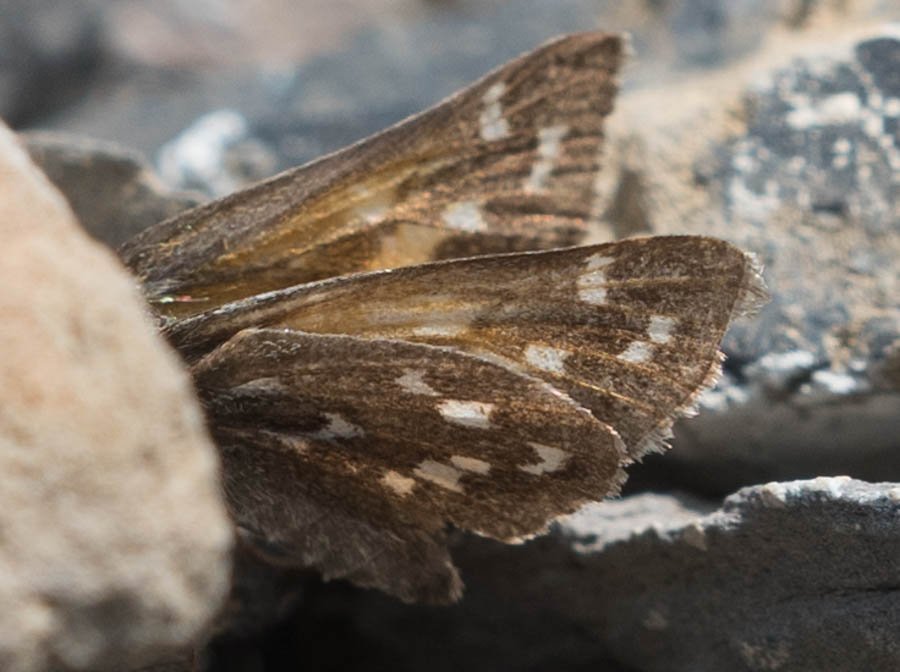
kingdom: Animalia
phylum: Arthropoda
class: Insecta
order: Lepidoptera
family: Hesperiidae
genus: Hesperia
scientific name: Hesperia comma
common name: Common Branded Skipper
